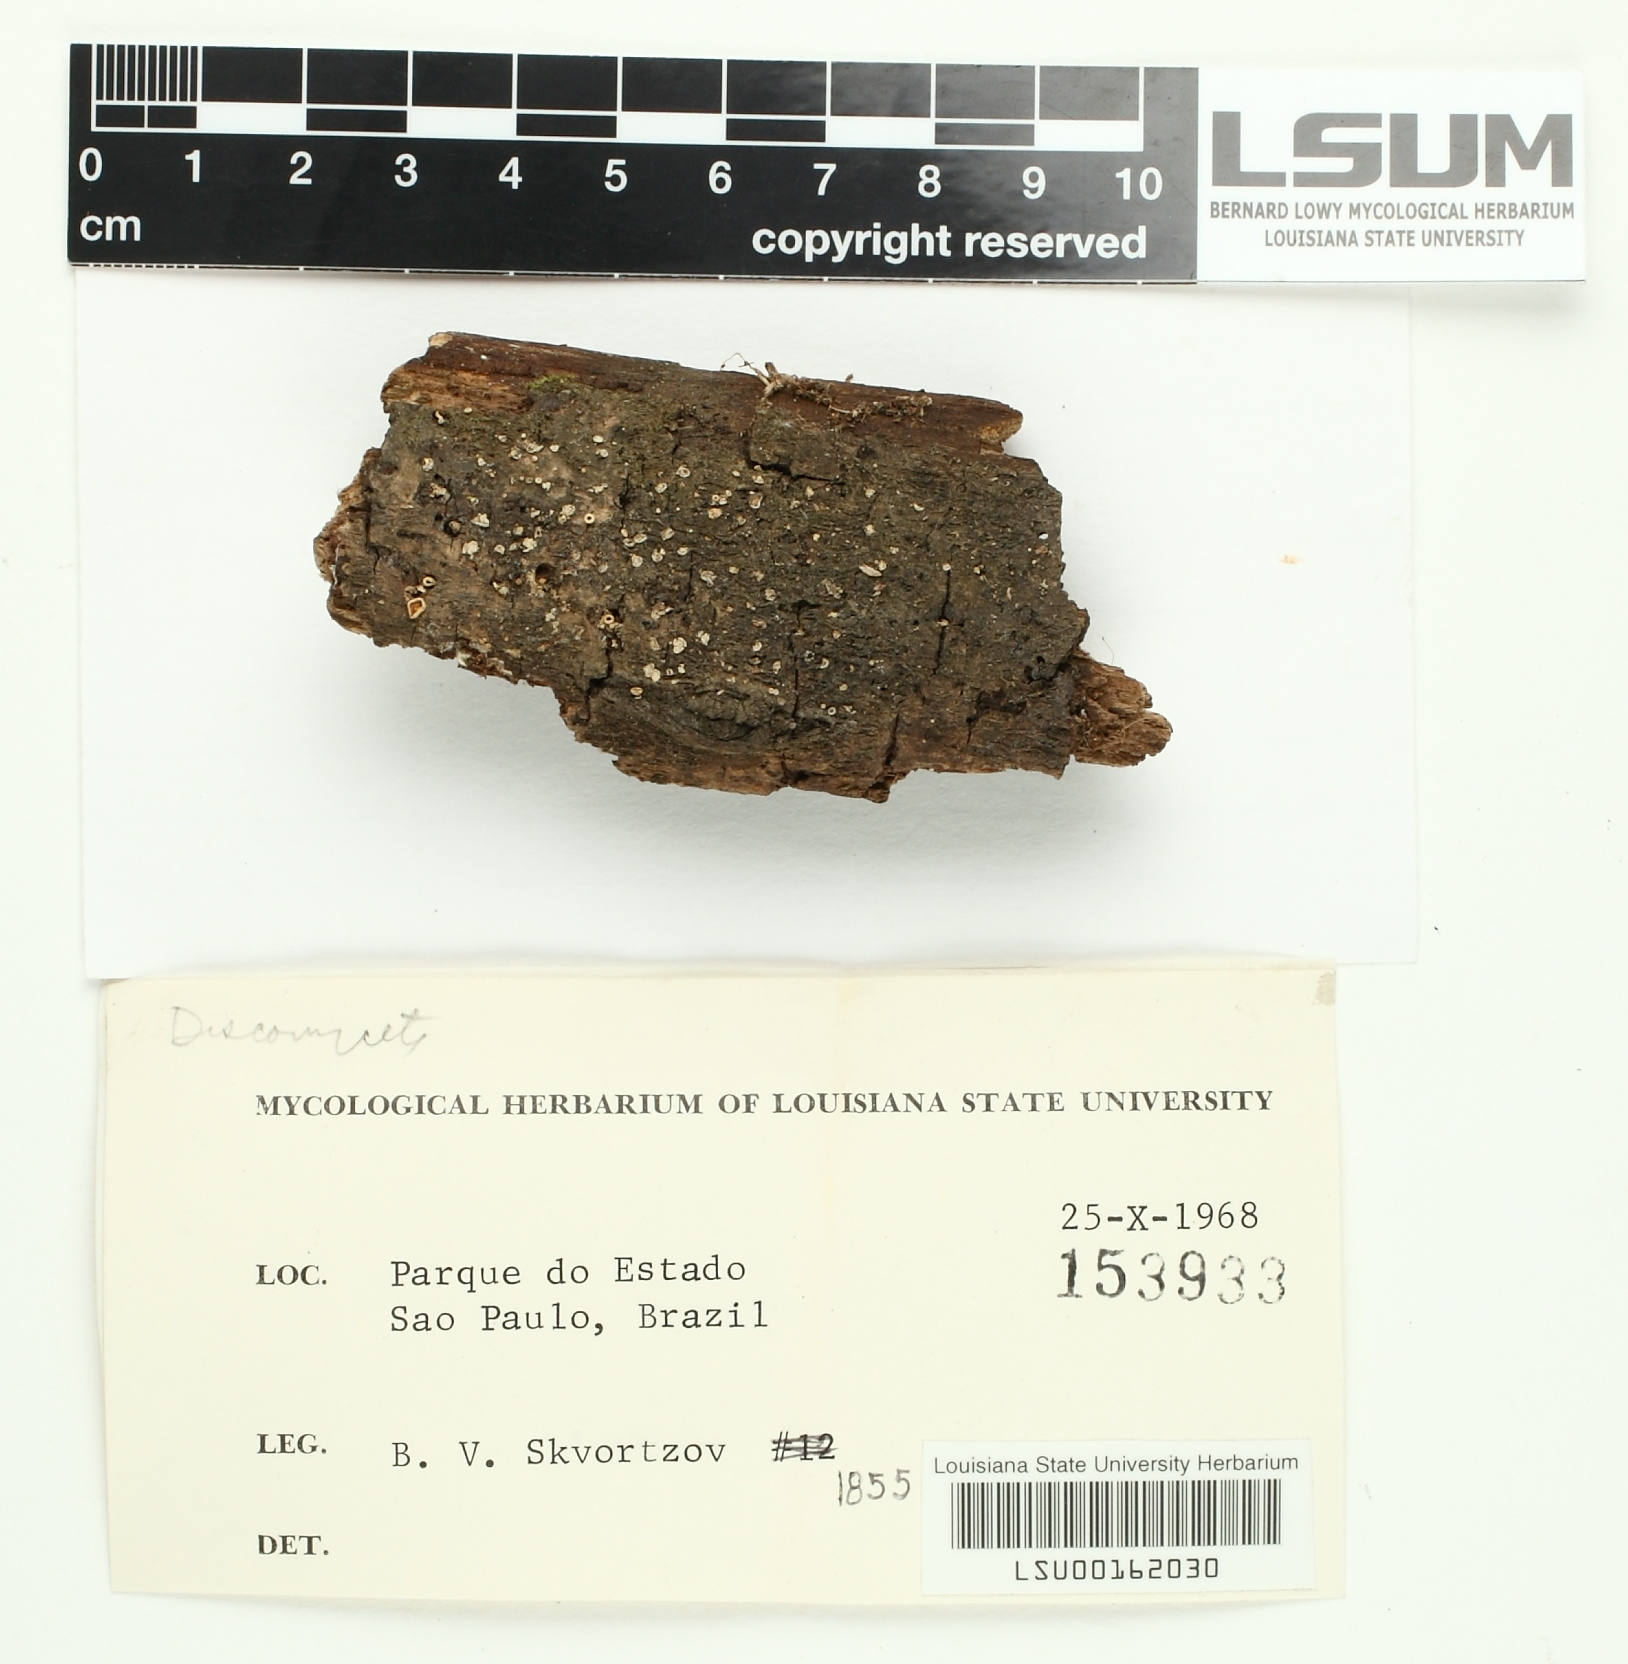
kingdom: Fungi
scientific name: Fungi
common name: Fungi
